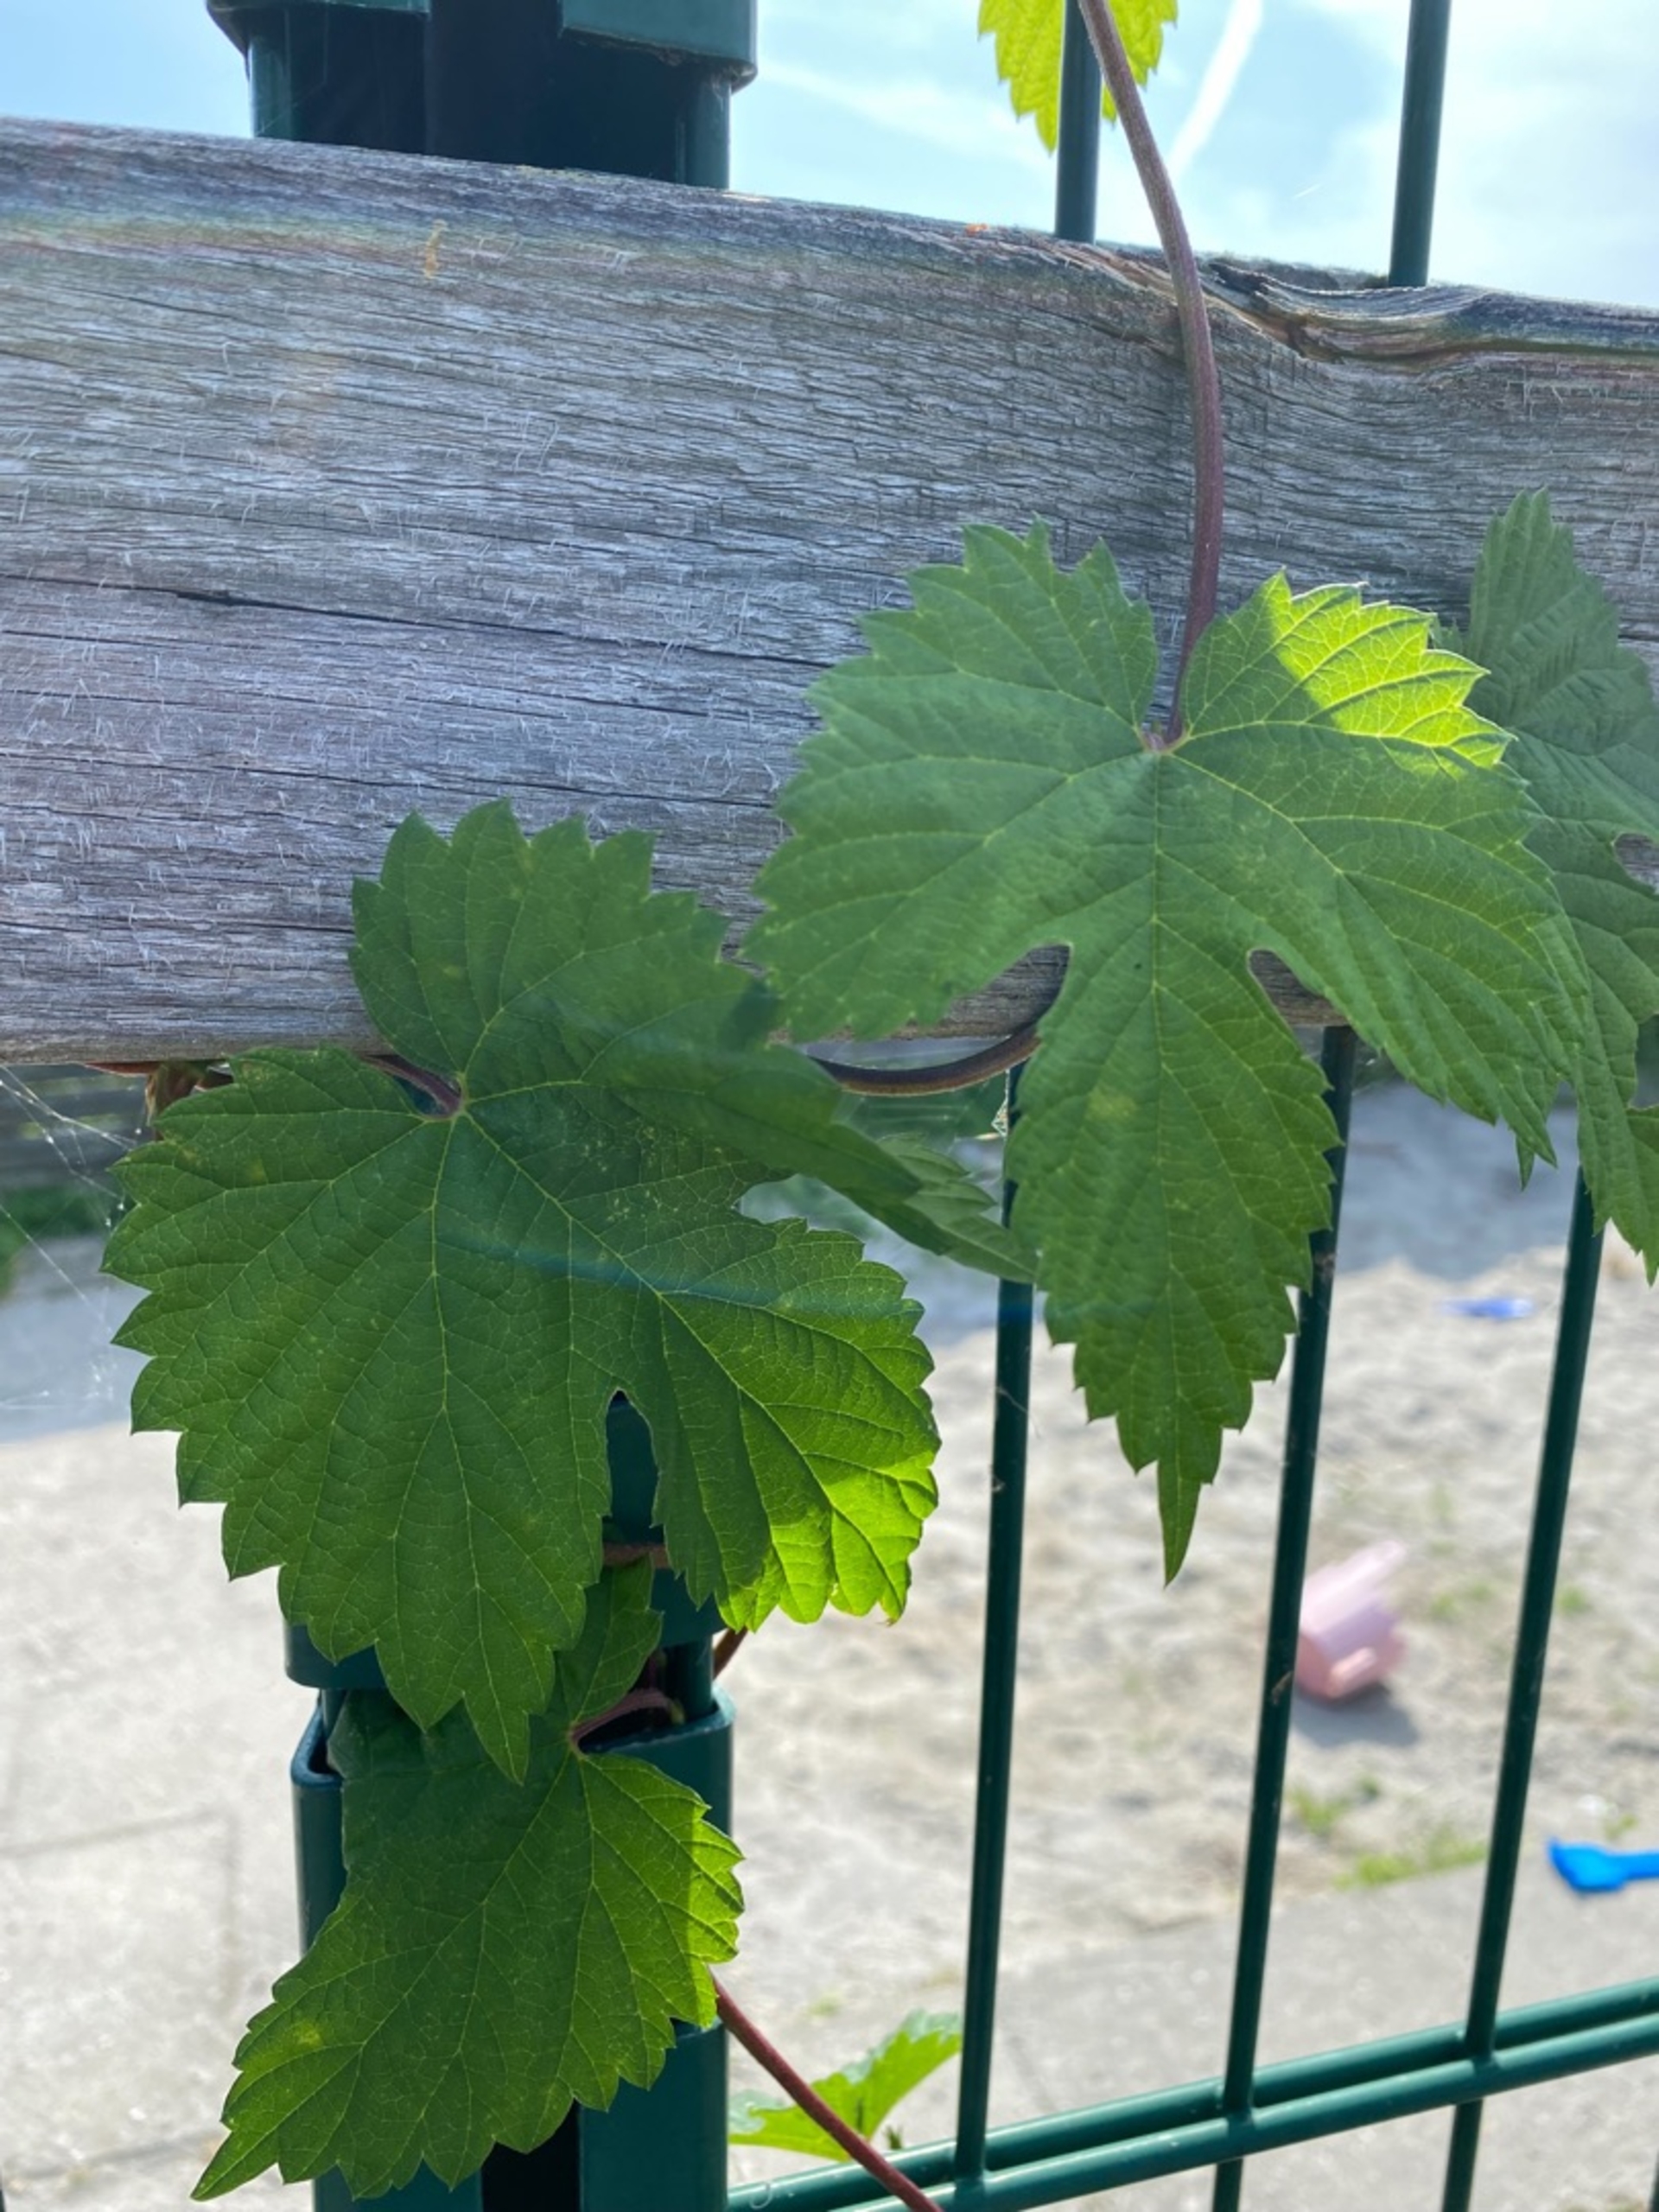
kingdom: Plantae
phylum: Tracheophyta
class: Magnoliopsida
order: Rosales
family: Cannabaceae
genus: Humulus
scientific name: Humulus lupulus
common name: Humle
